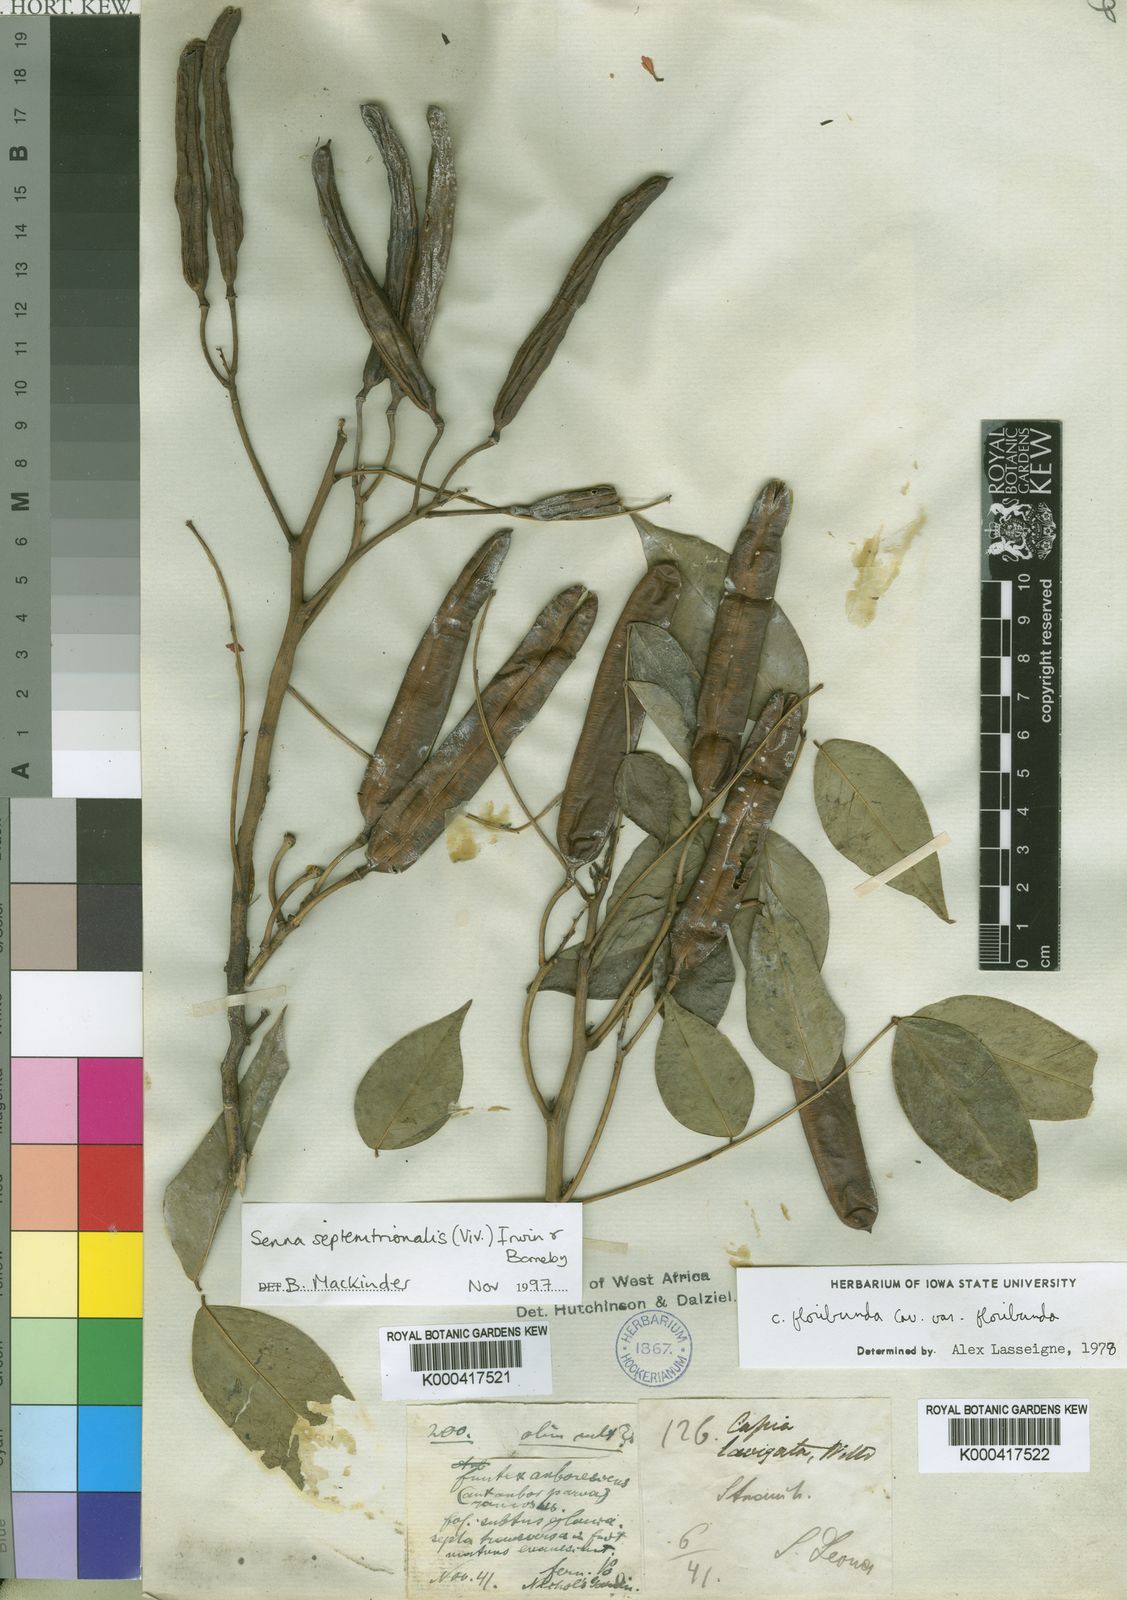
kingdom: Plantae
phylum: Tracheophyta
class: Magnoliopsida
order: Fabales
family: Fabaceae
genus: Senna
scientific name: Senna septemtrionalis
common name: Arsenic bush
